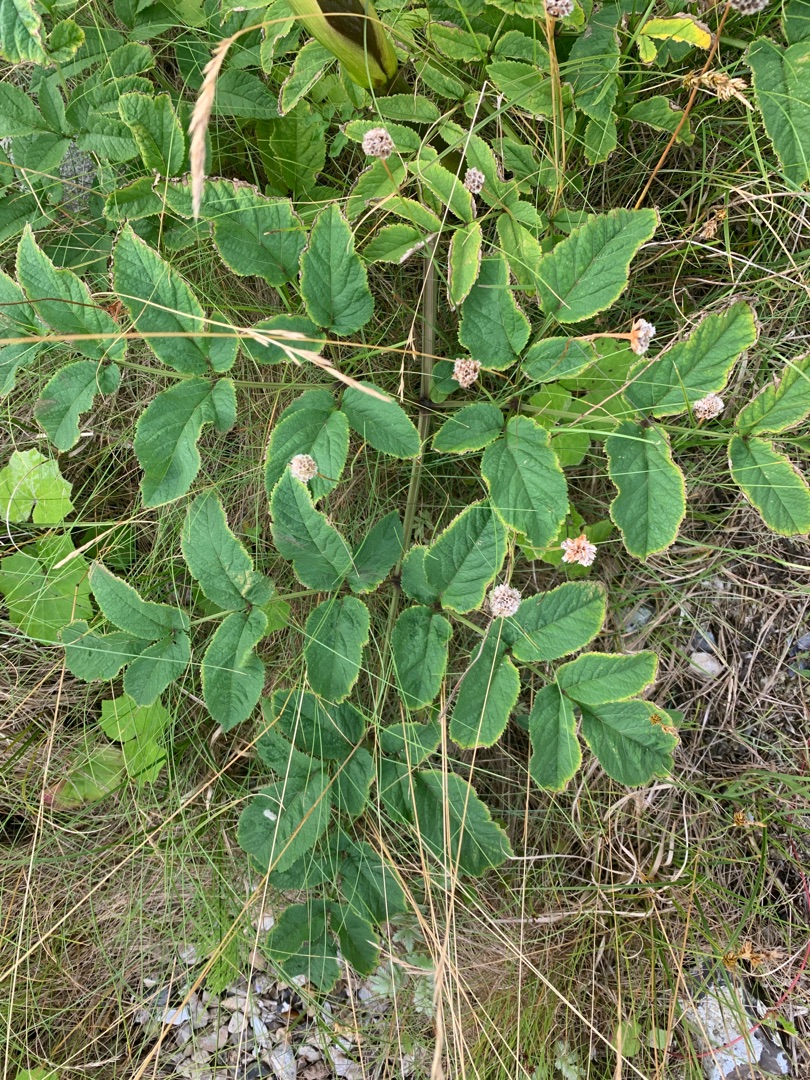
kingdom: Plantae
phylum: Tracheophyta
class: Magnoliopsida
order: Apiales
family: Apiaceae
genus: Angelica
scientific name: Angelica sylvestris
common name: Angelik
